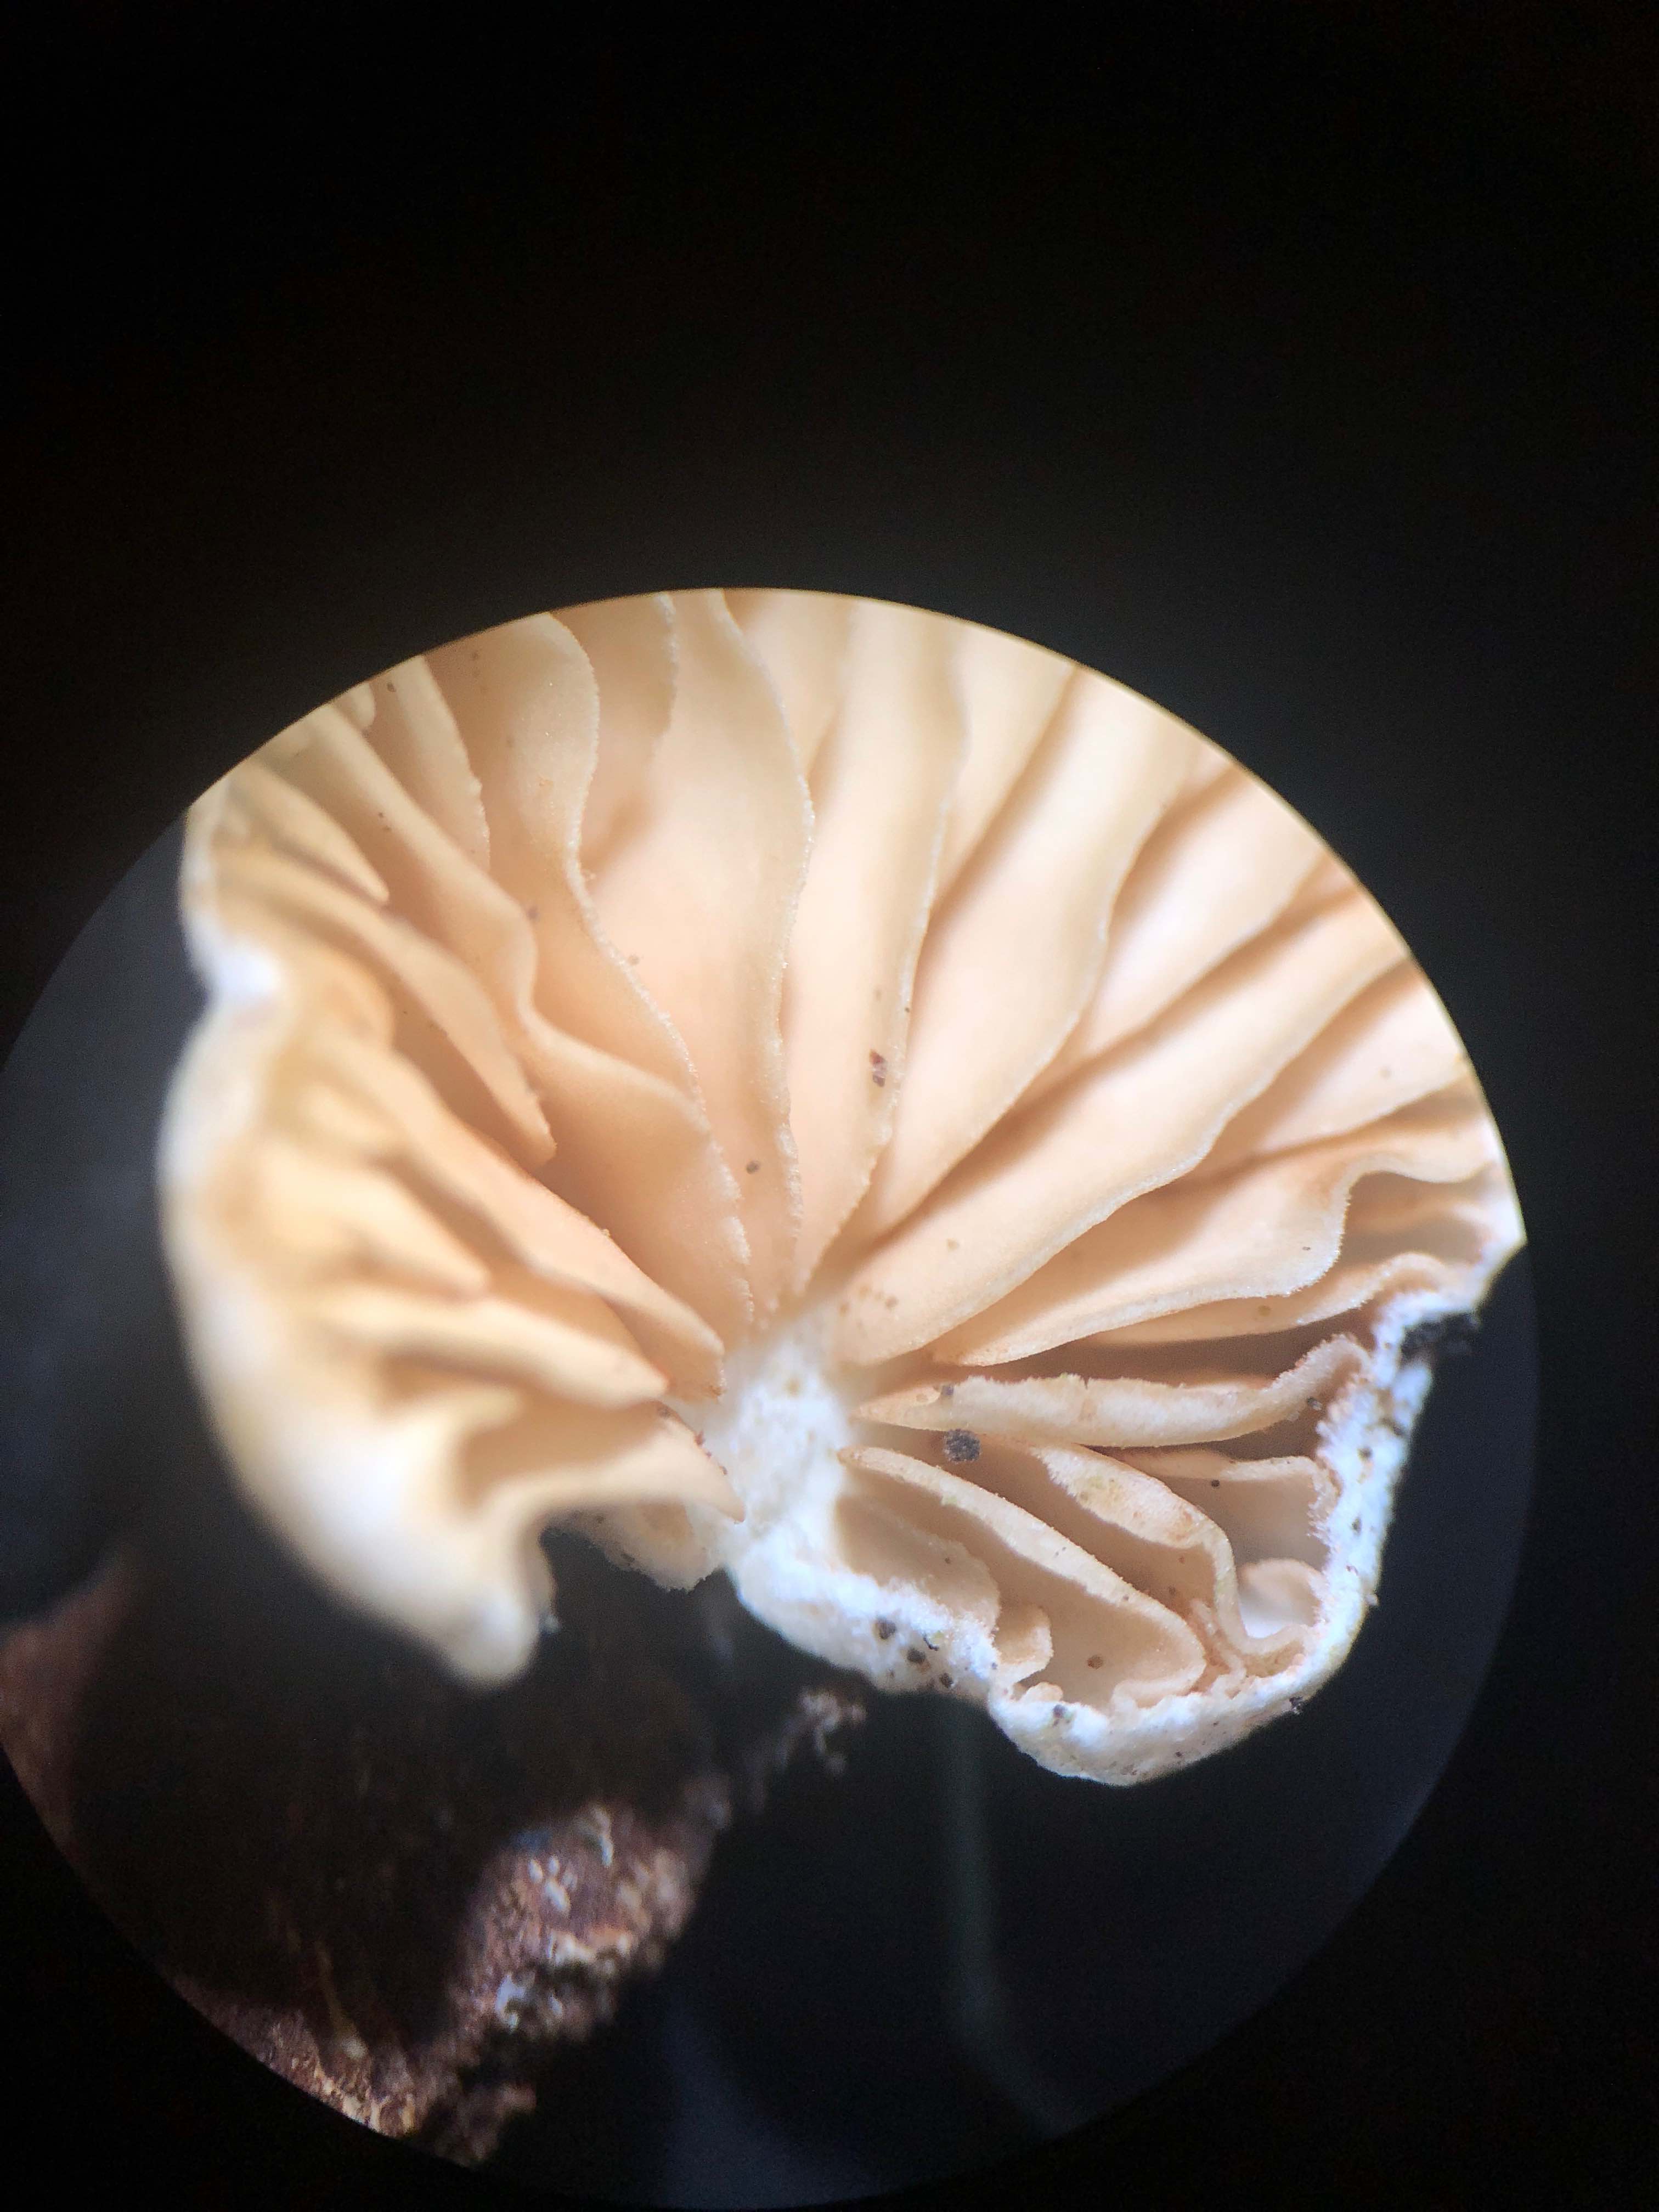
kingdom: Fungi
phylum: Basidiomycota
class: Agaricomycetes
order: Agaricales
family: Crepidotaceae
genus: Crepidotus
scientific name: Crepidotus cesatii
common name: almindelig muslingesvamp
